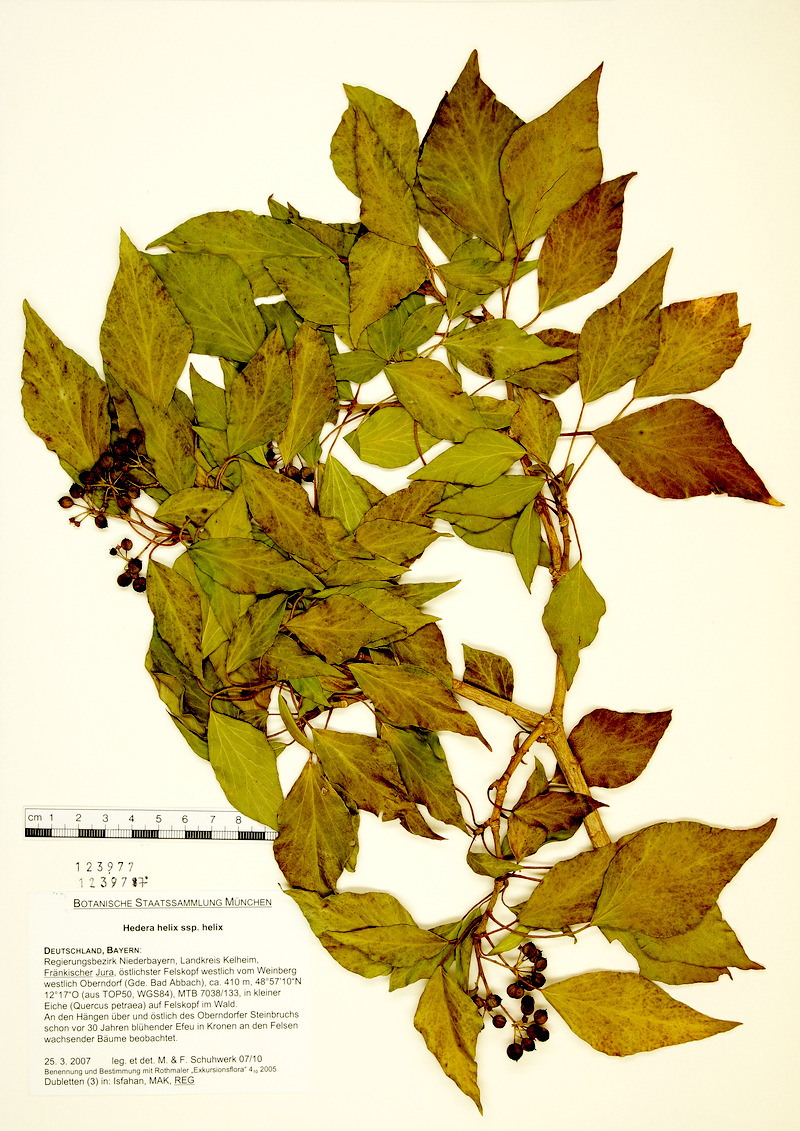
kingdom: Plantae
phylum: Tracheophyta
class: Magnoliopsida
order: Apiales
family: Araliaceae
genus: Hedera
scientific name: Hedera helix
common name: Ivy
